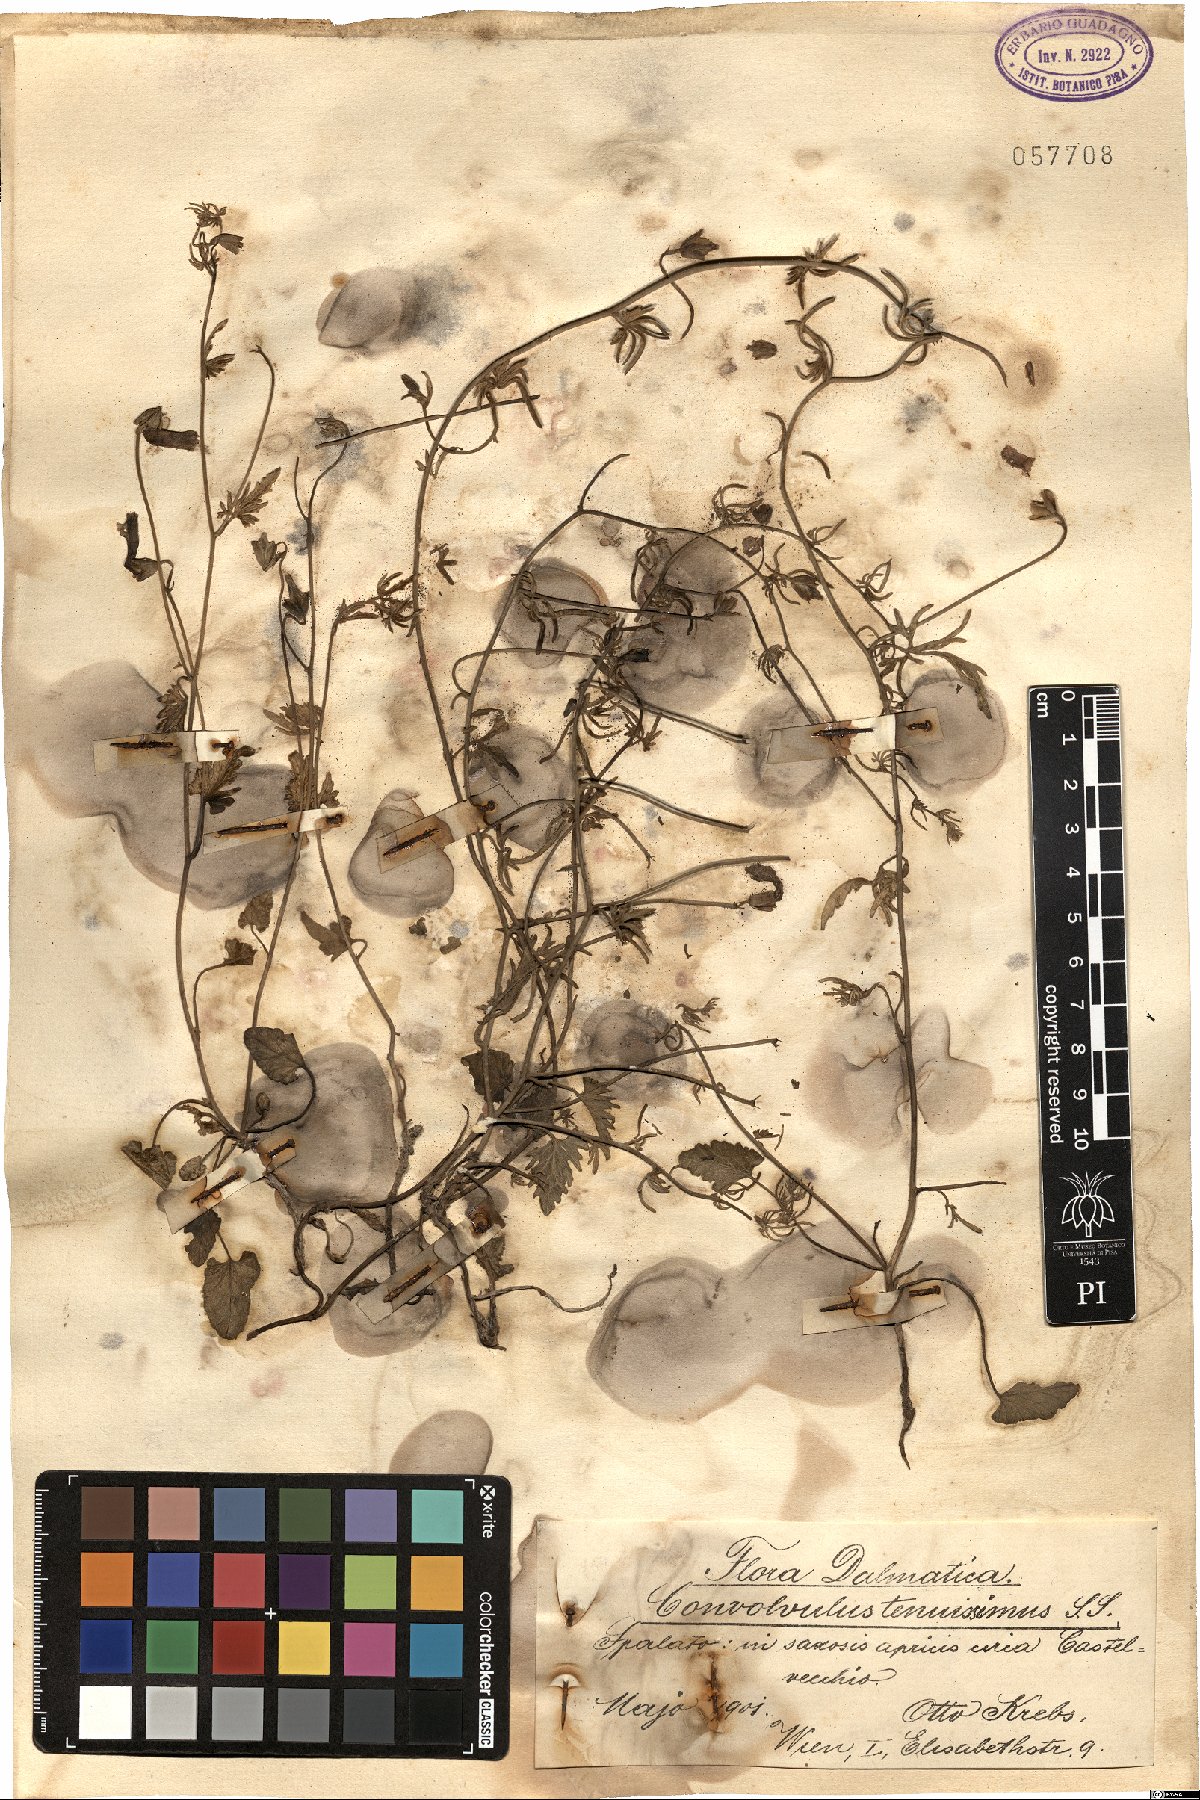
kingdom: Plantae
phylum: Tracheophyta
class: Magnoliopsida
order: Solanales
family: Convolvulaceae
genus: Convolvulus
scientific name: Convolvulus elegantissimus
